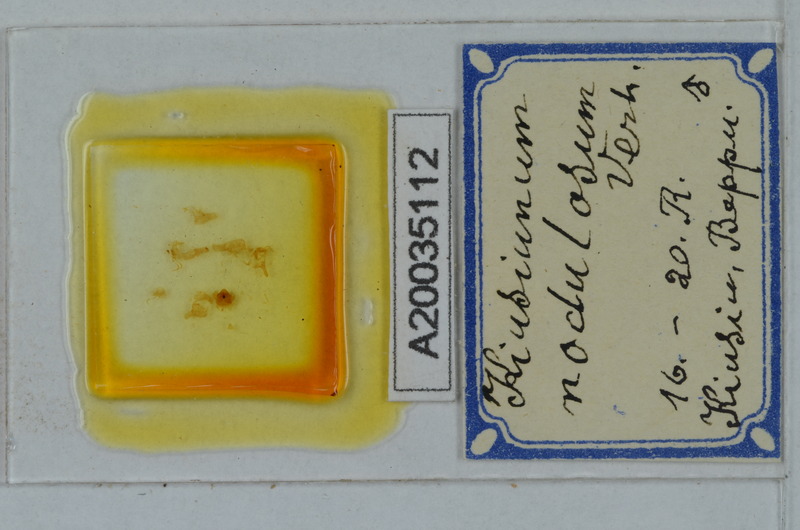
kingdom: Animalia
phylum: Arthropoda
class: Diplopoda
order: Polydesmida
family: Cryptodesmidae
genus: Kiusiunum
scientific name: Kiusiunum nodulosum
